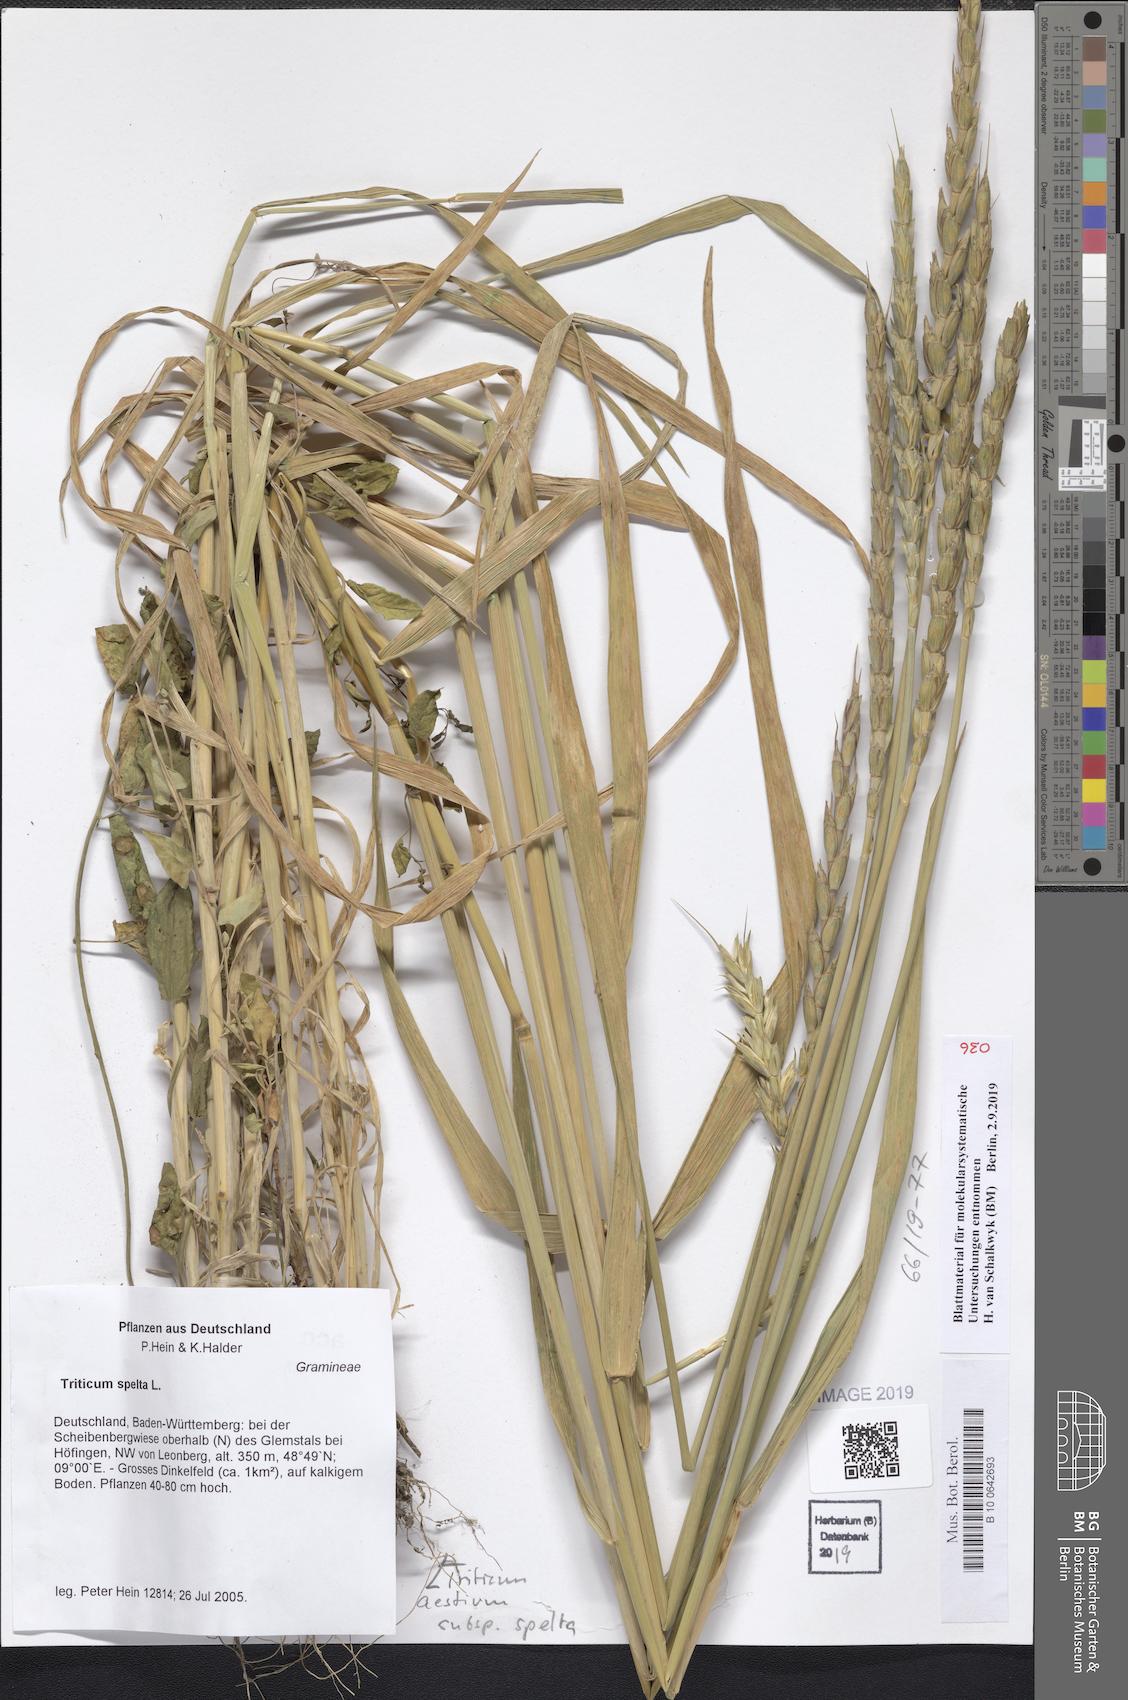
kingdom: Plantae
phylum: Tracheophyta
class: Liliopsida
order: Poales
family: Poaceae
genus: Triticum
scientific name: Triticum aestivum
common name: Common wheat
